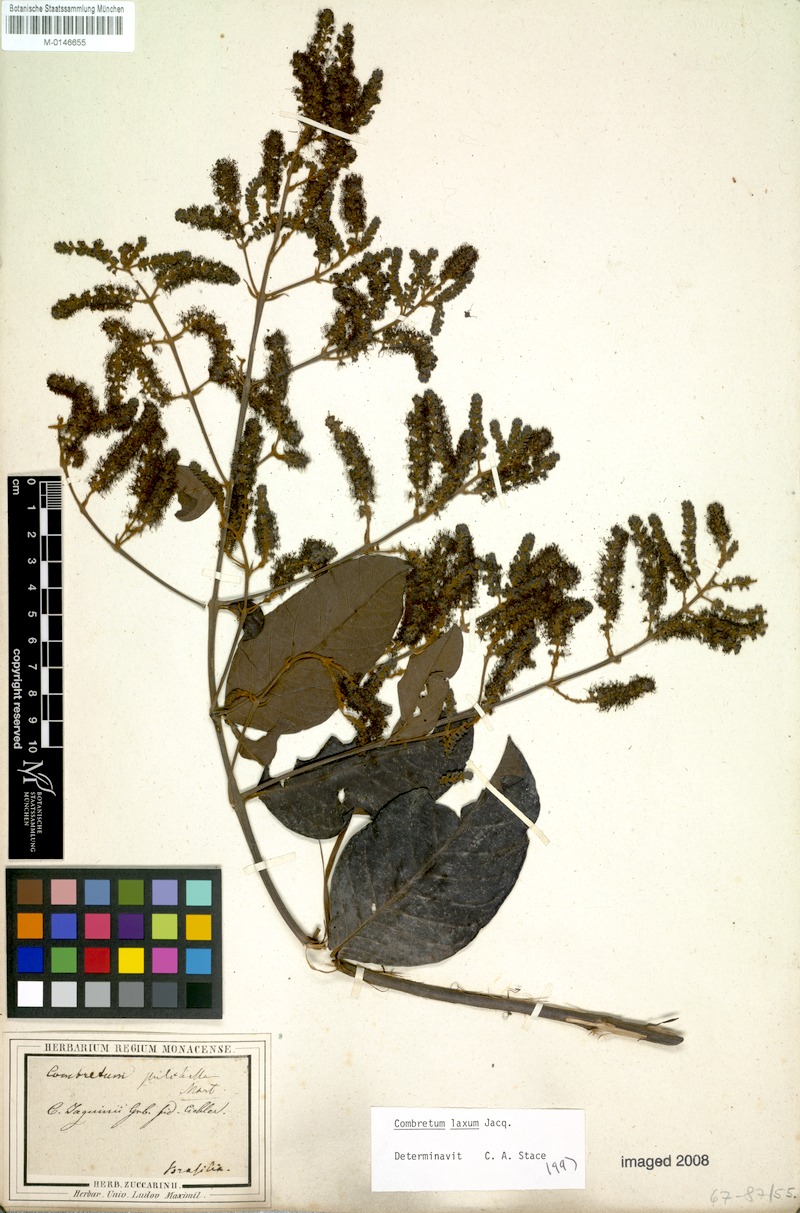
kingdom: Plantae
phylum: Tracheophyta
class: Magnoliopsida
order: Myrtales
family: Combretaceae
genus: Combretum
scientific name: Combretum laxum
